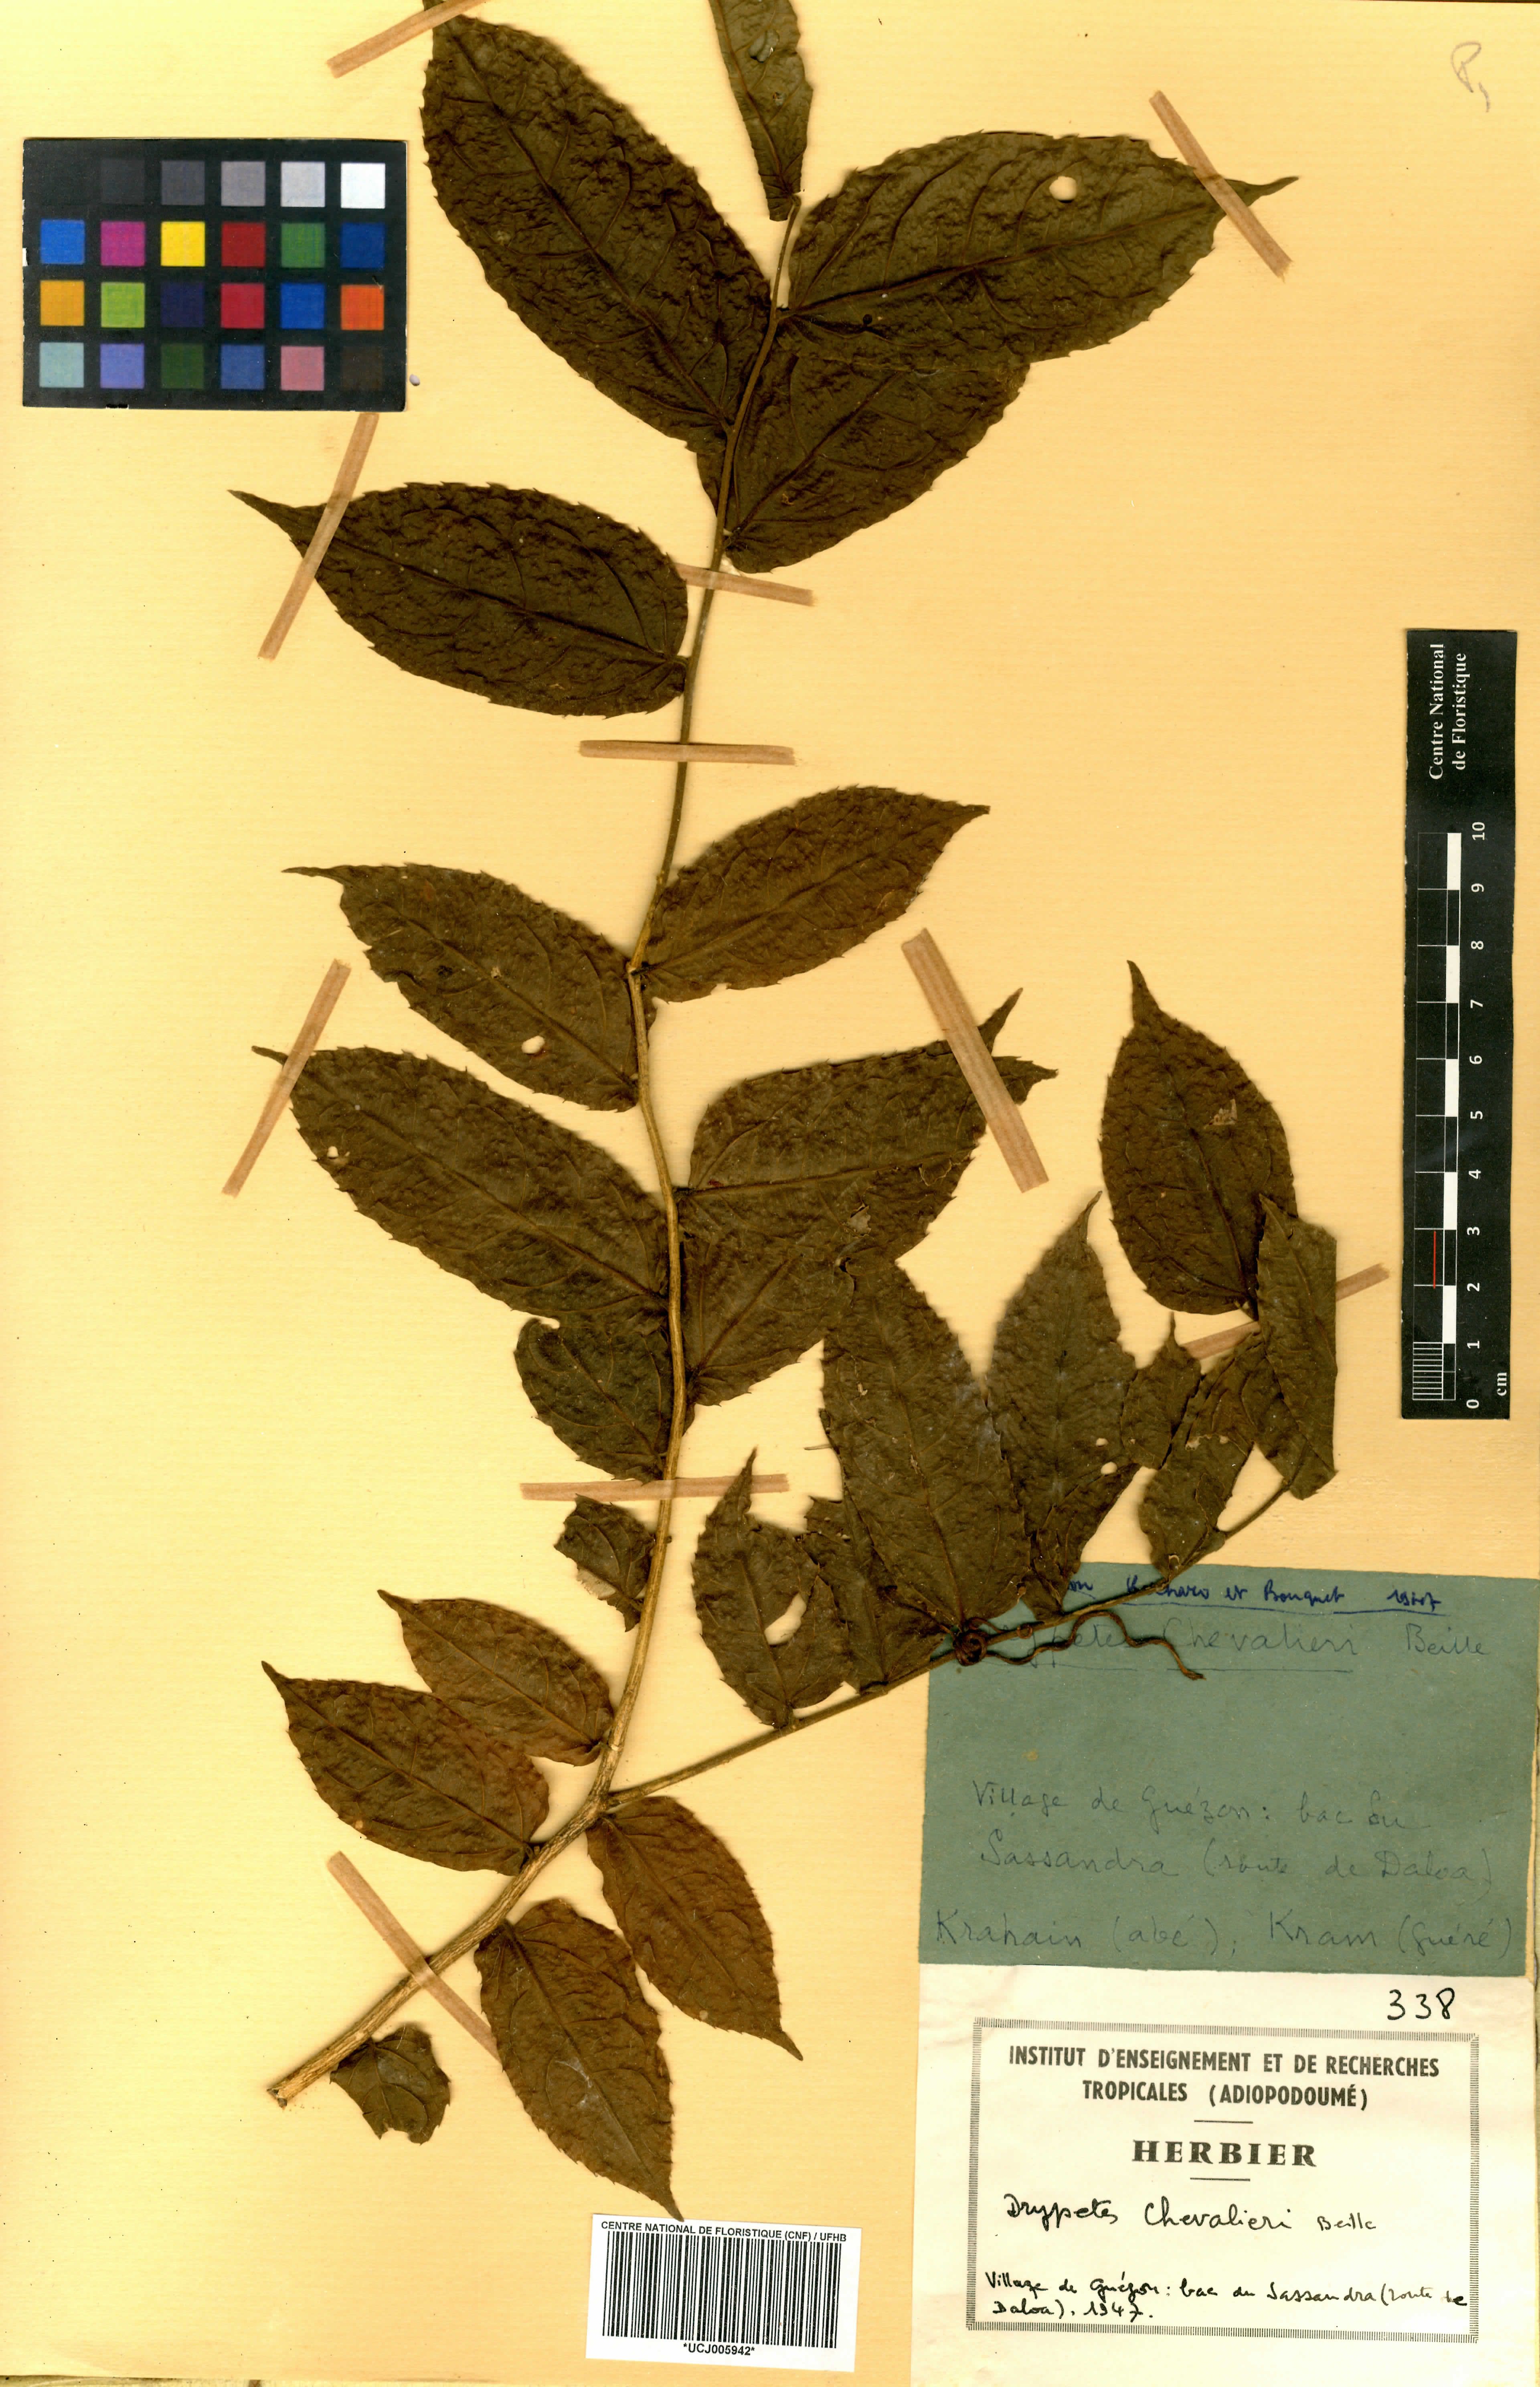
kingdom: Plantae
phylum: Tracheophyta
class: Magnoliopsida
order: Malpighiales
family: Putranjivaceae
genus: Drypetes
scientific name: Drypetes chevalieri
